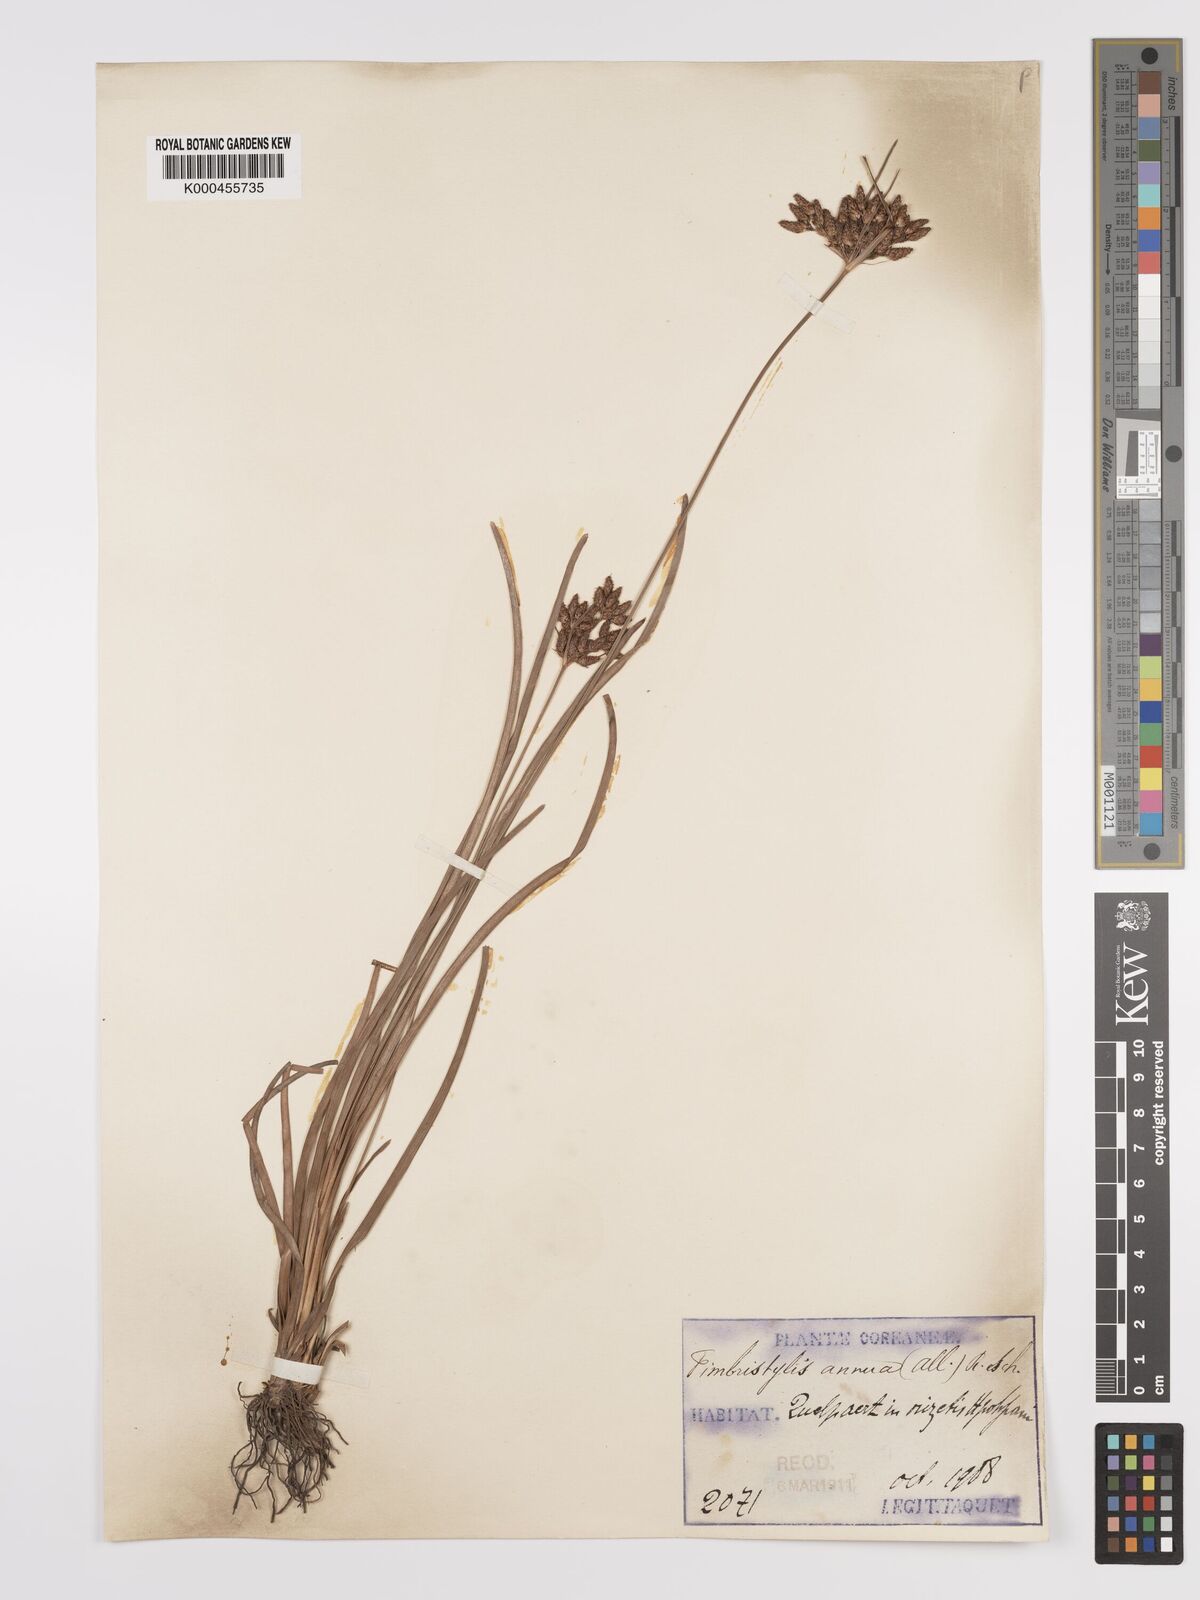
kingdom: Plantae
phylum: Tracheophyta
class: Liliopsida
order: Poales
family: Cyperaceae
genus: Fimbristylis
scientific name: Fimbristylis dichotoma
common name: Forked fimbry
